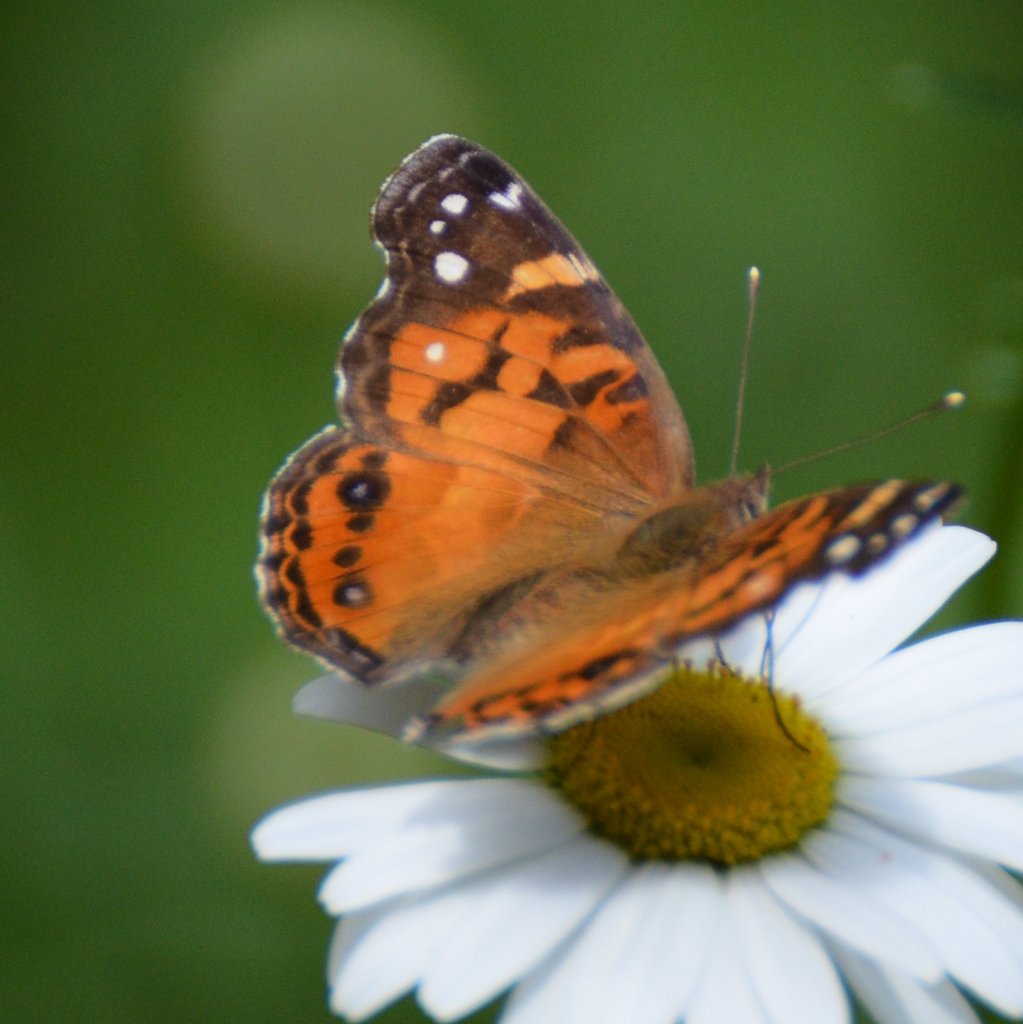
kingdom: Animalia
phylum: Arthropoda
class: Insecta
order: Lepidoptera
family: Nymphalidae
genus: Vanessa
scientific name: Vanessa virginiensis
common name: American Lady
